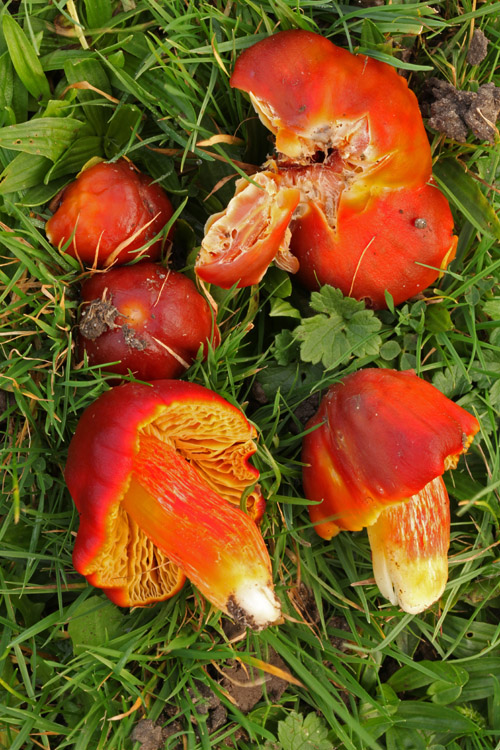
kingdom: Fungi
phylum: Basidiomycota
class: Agaricomycetes
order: Agaricales
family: Hygrophoraceae
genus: Hygrocybe
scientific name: Hygrocybe punicea
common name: skarlagen-vokshat
